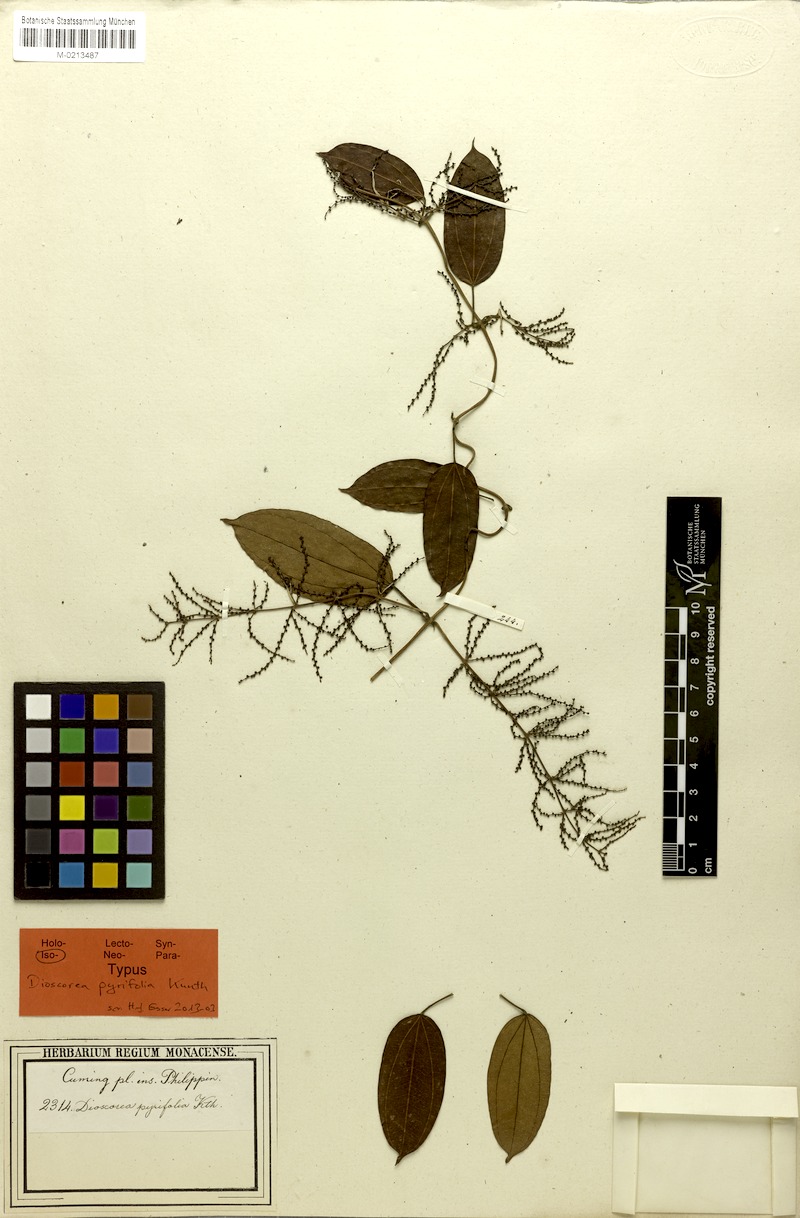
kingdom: Plantae
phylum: Tracheophyta
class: Liliopsida
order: Dioscoreales
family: Dioscoreaceae
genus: Dioscorea
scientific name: Dioscorea pyrifolia
